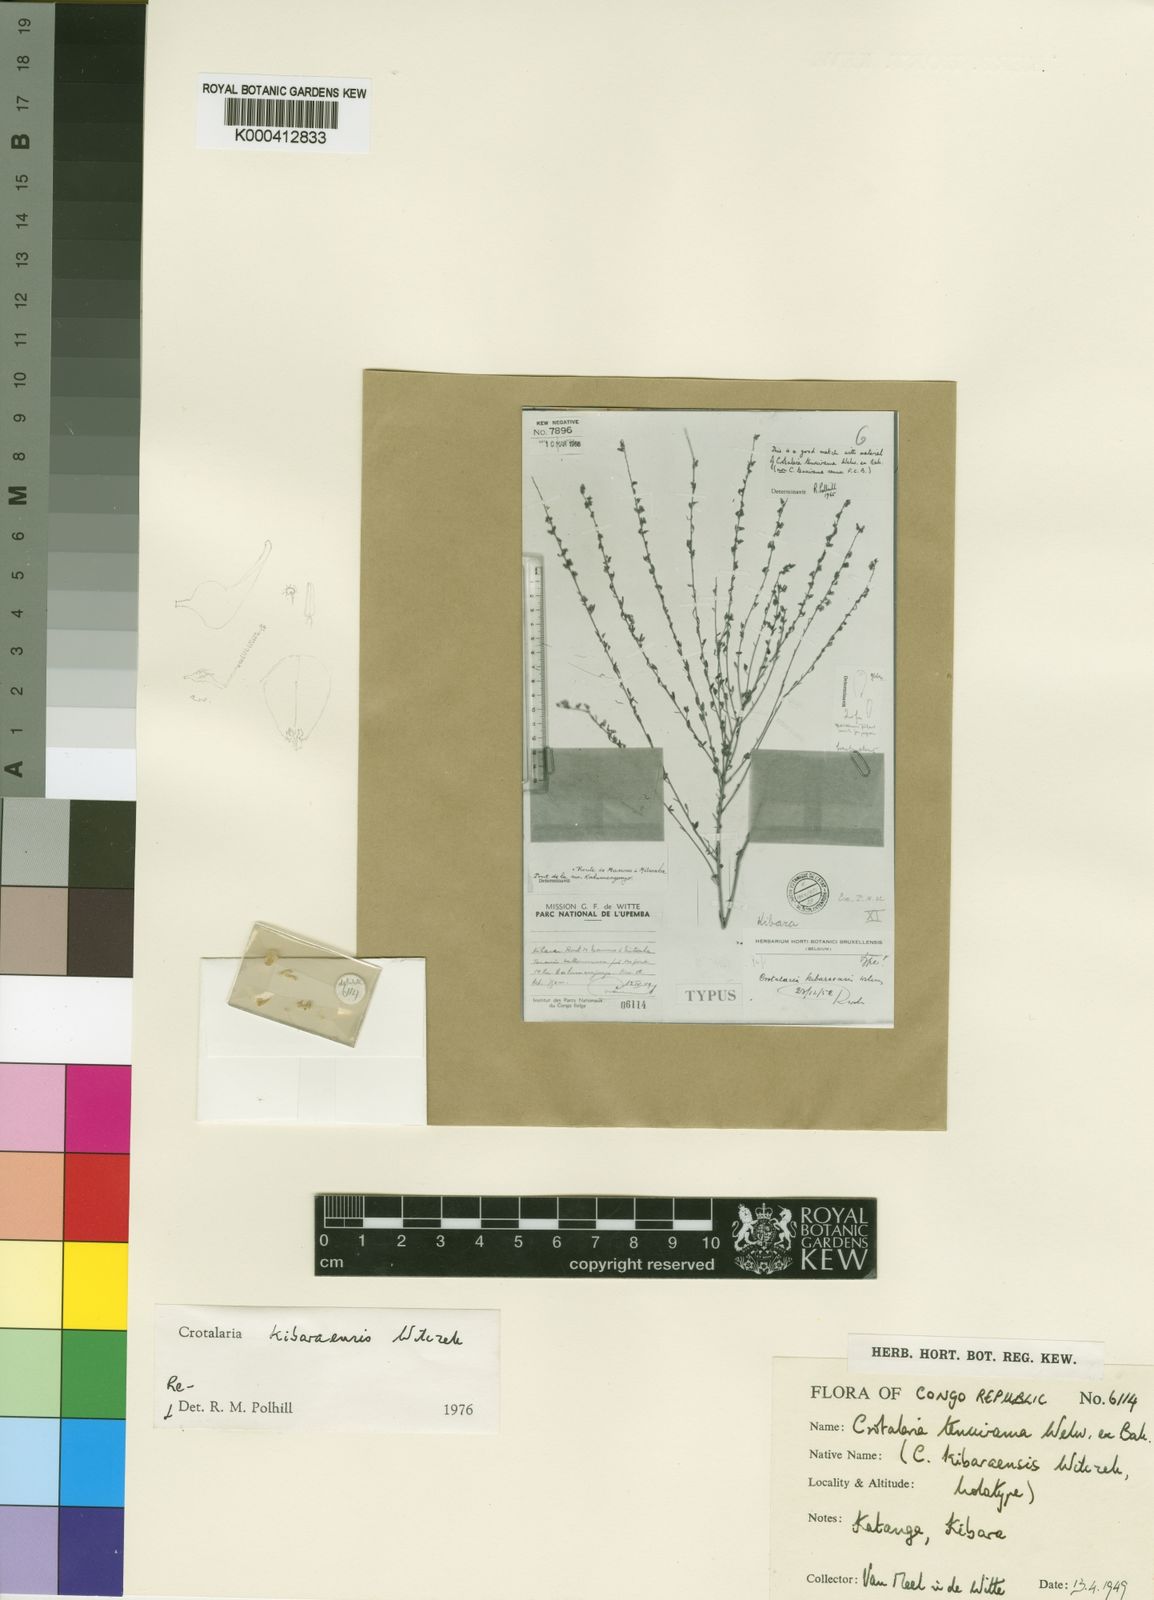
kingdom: Plantae
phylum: Tracheophyta
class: Magnoliopsida
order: Fabales
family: Fabaceae
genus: Crotalaria
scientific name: Crotalaria tenuirama
